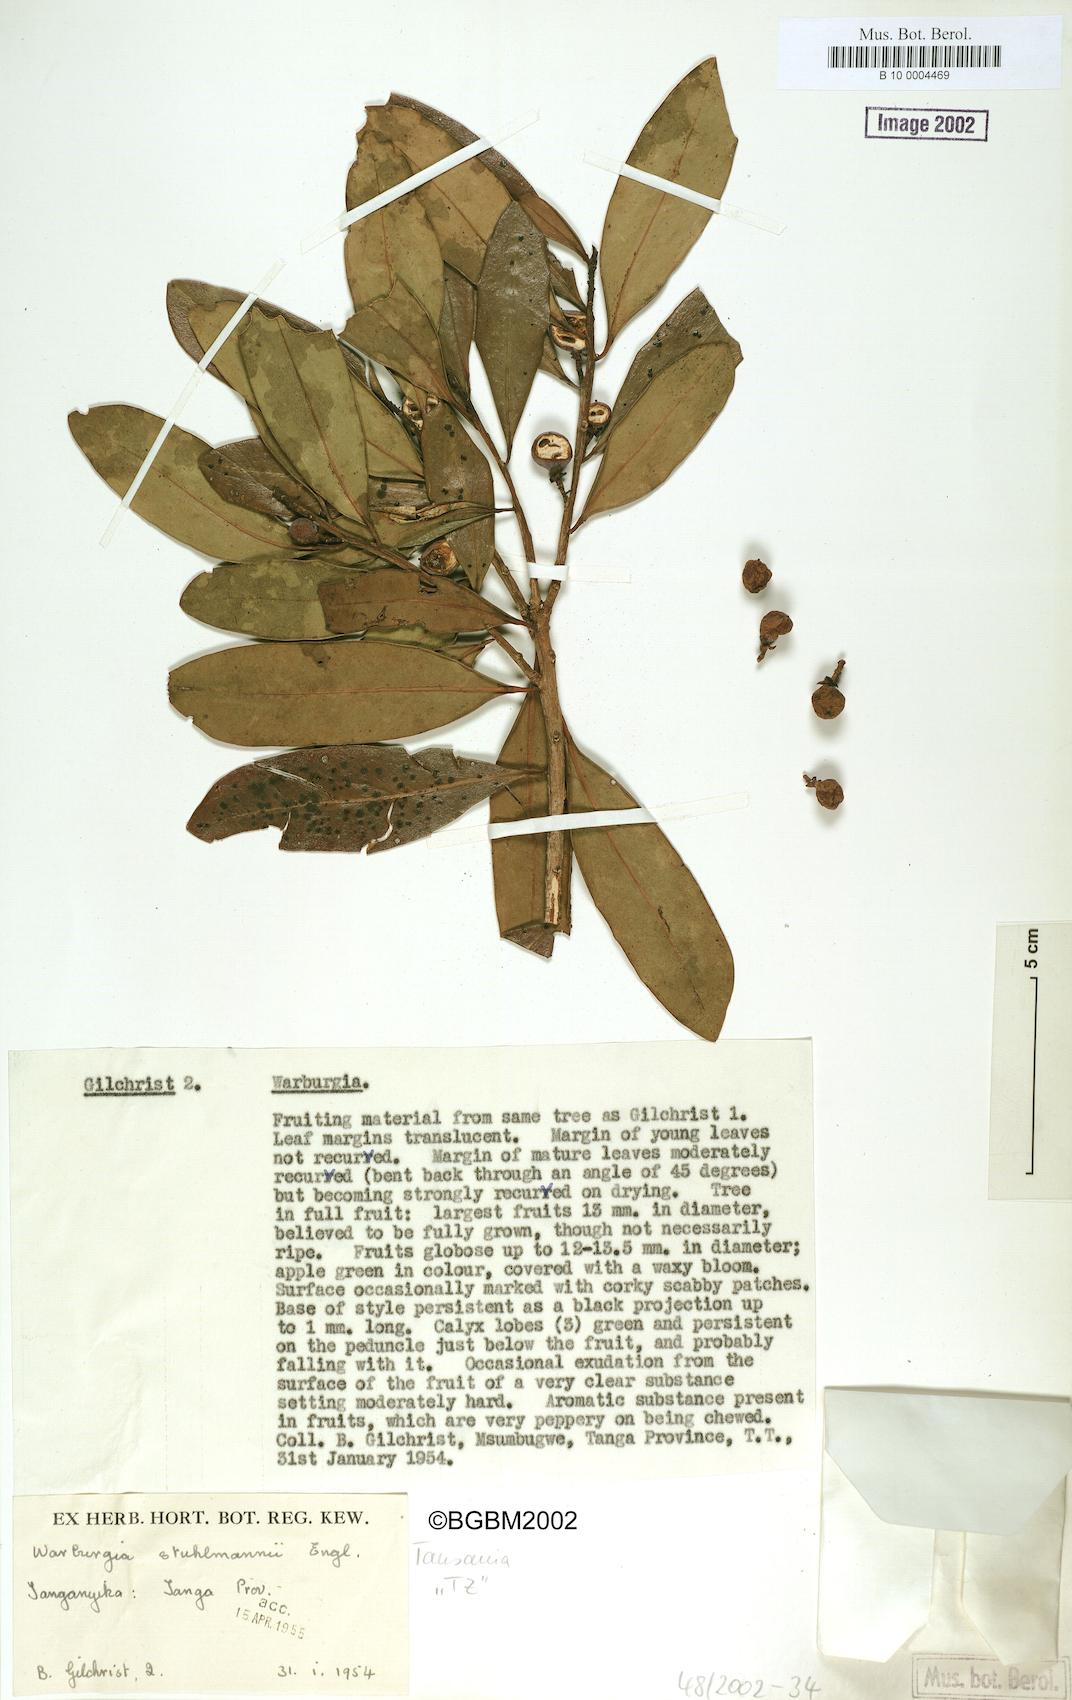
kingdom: Plantae
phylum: Tracheophyta
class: Magnoliopsida
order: Canellales
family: Canellaceae
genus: Warburgia
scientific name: Warburgia stuhlmannii
